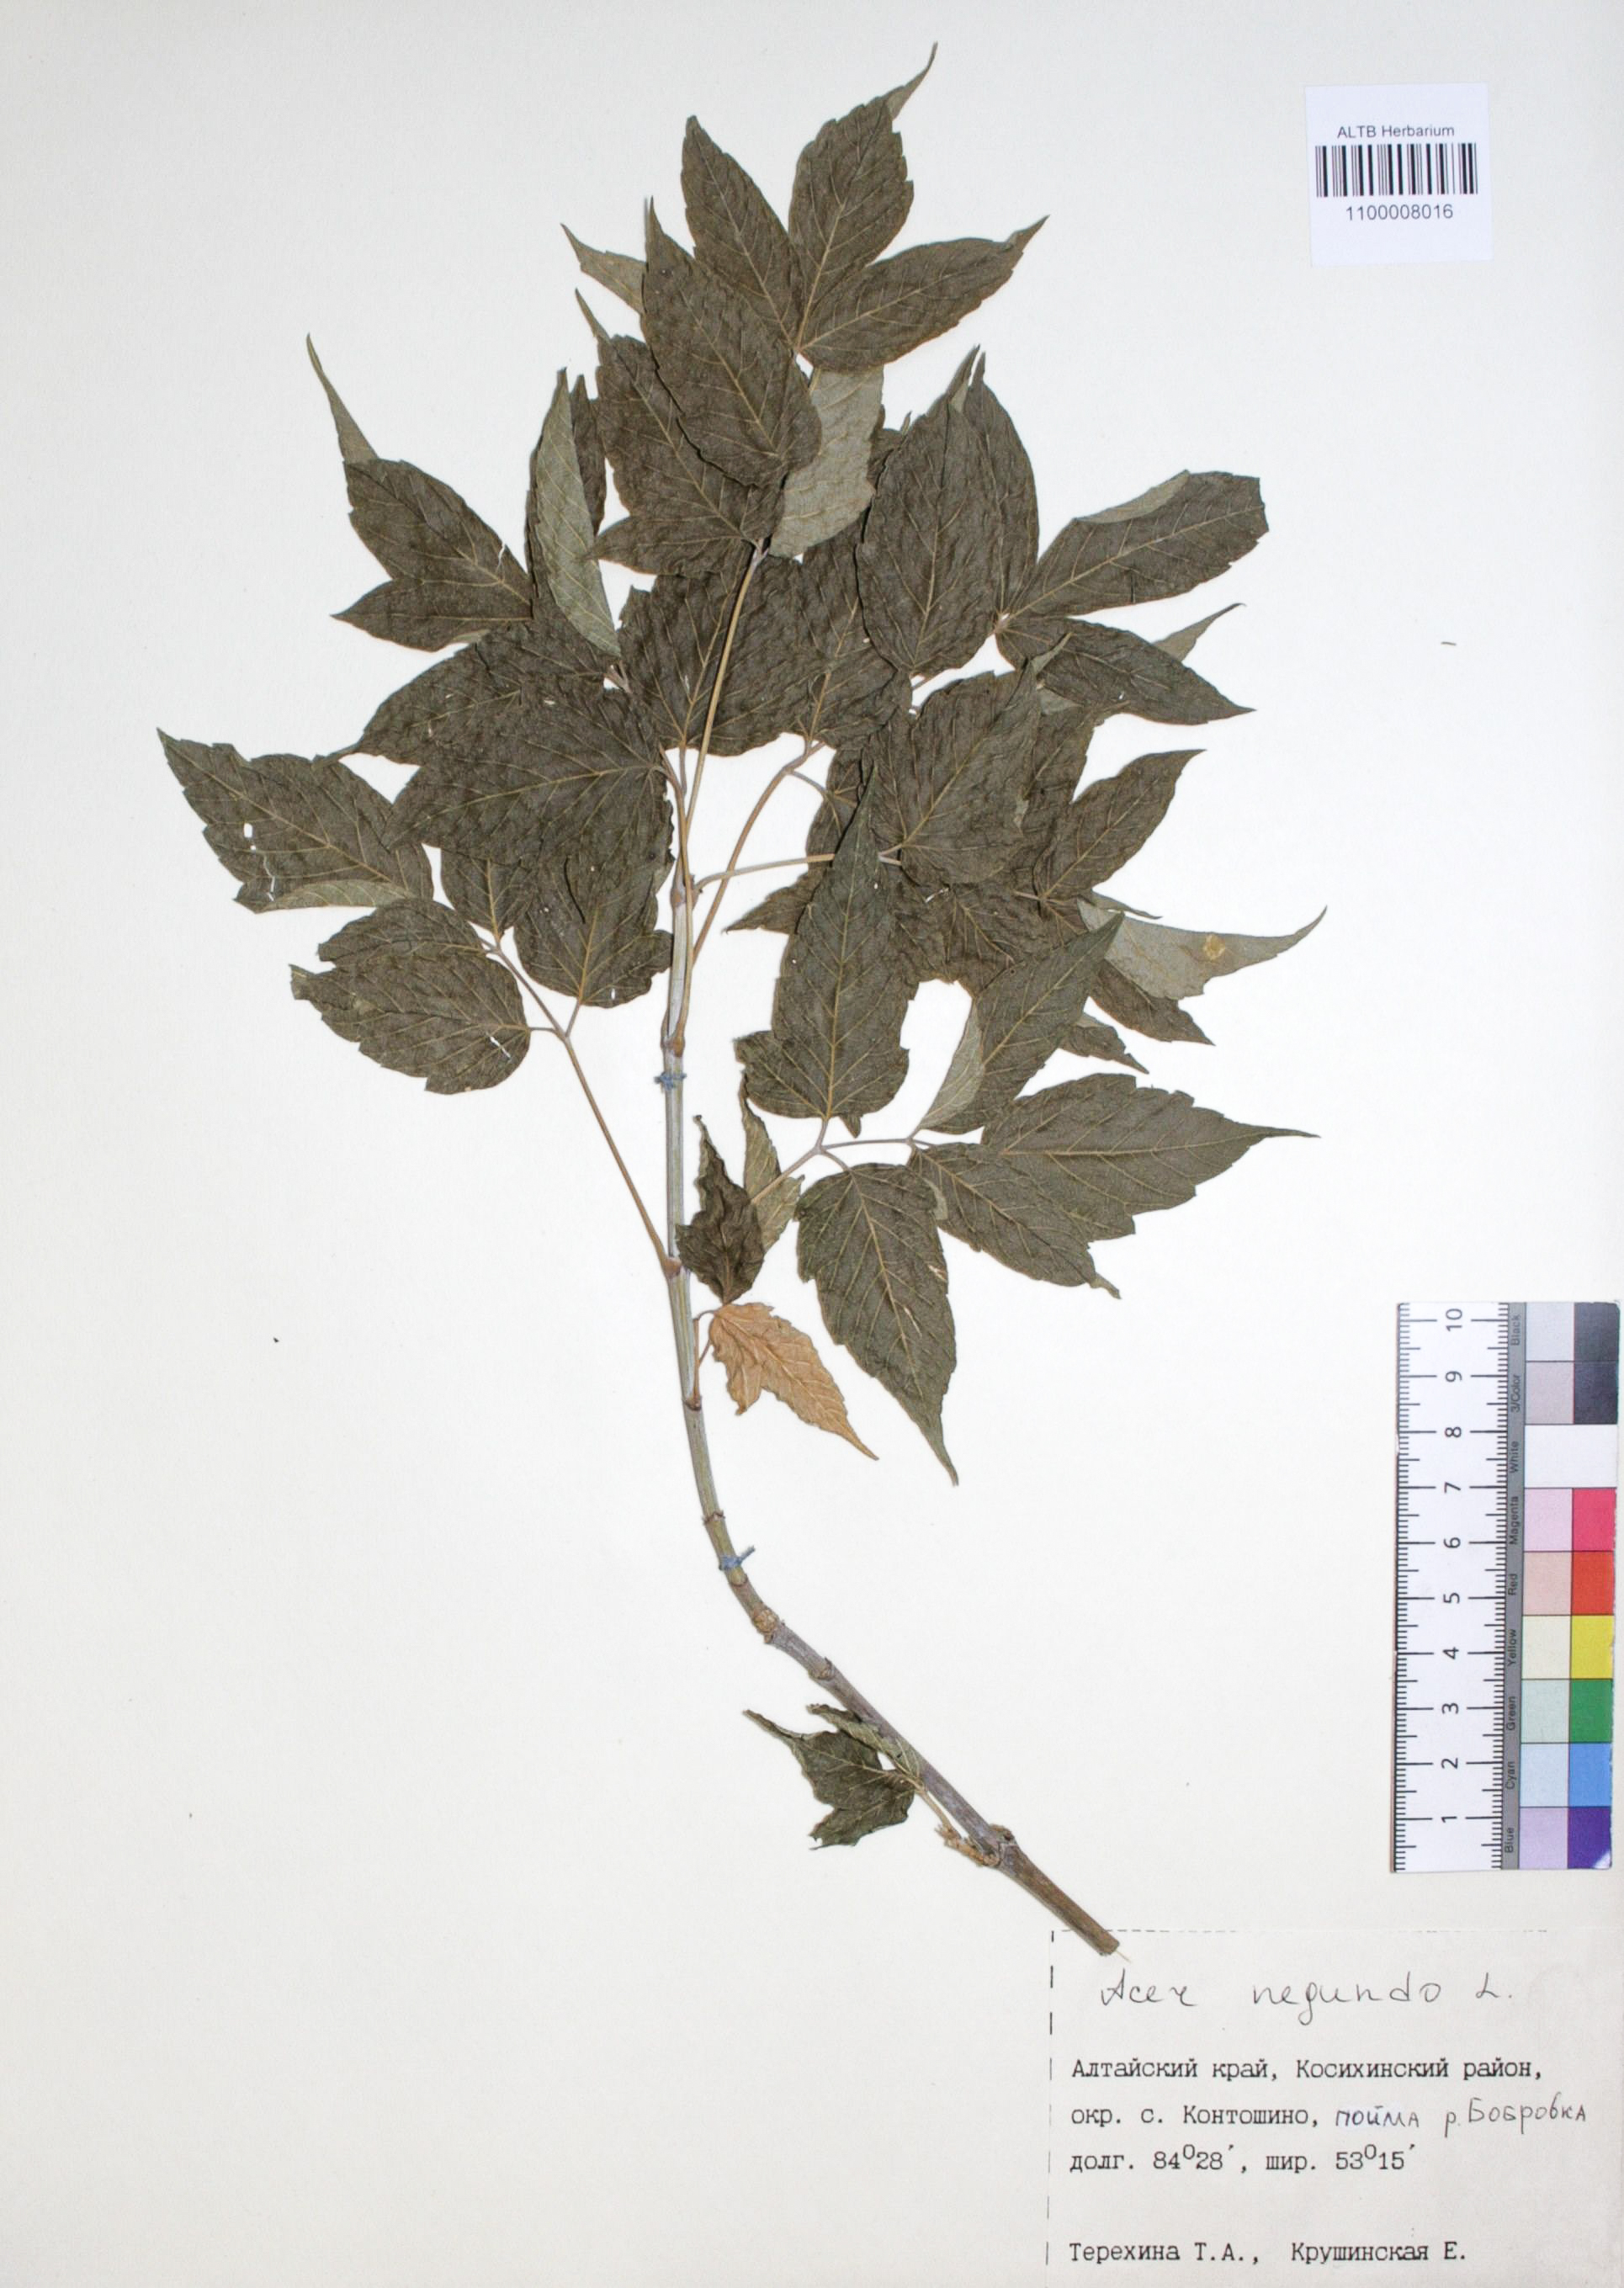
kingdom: Plantae
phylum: Tracheophyta
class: Magnoliopsida
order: Sapindales
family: Sapindaceae
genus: Acer
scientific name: Acer negundo
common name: Ashleaf maple
